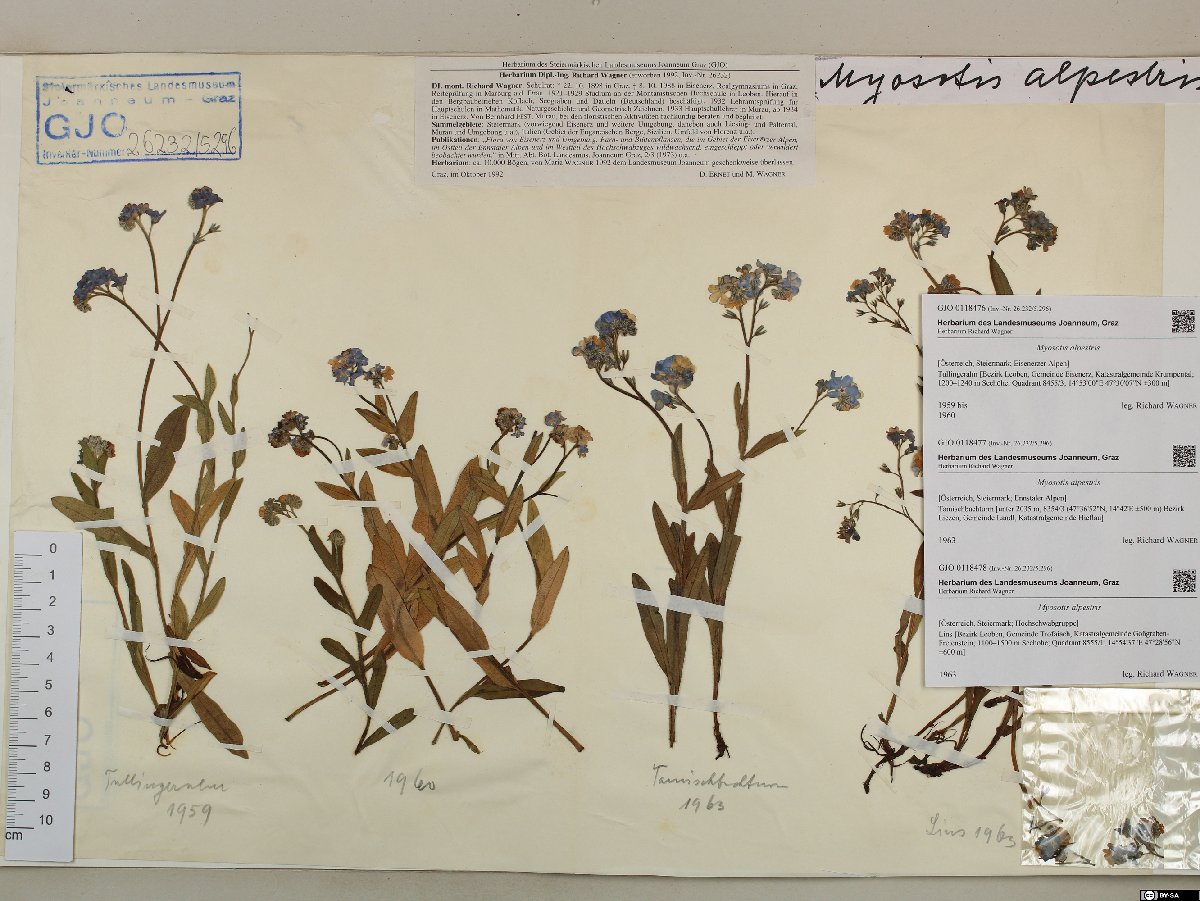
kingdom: Plantae
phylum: Tracheophyta
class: Magnoliopsida
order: Boraginales
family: Boraginaceae
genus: Myosotis
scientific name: Myosotis alpestris
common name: Alpine forget-me-not
